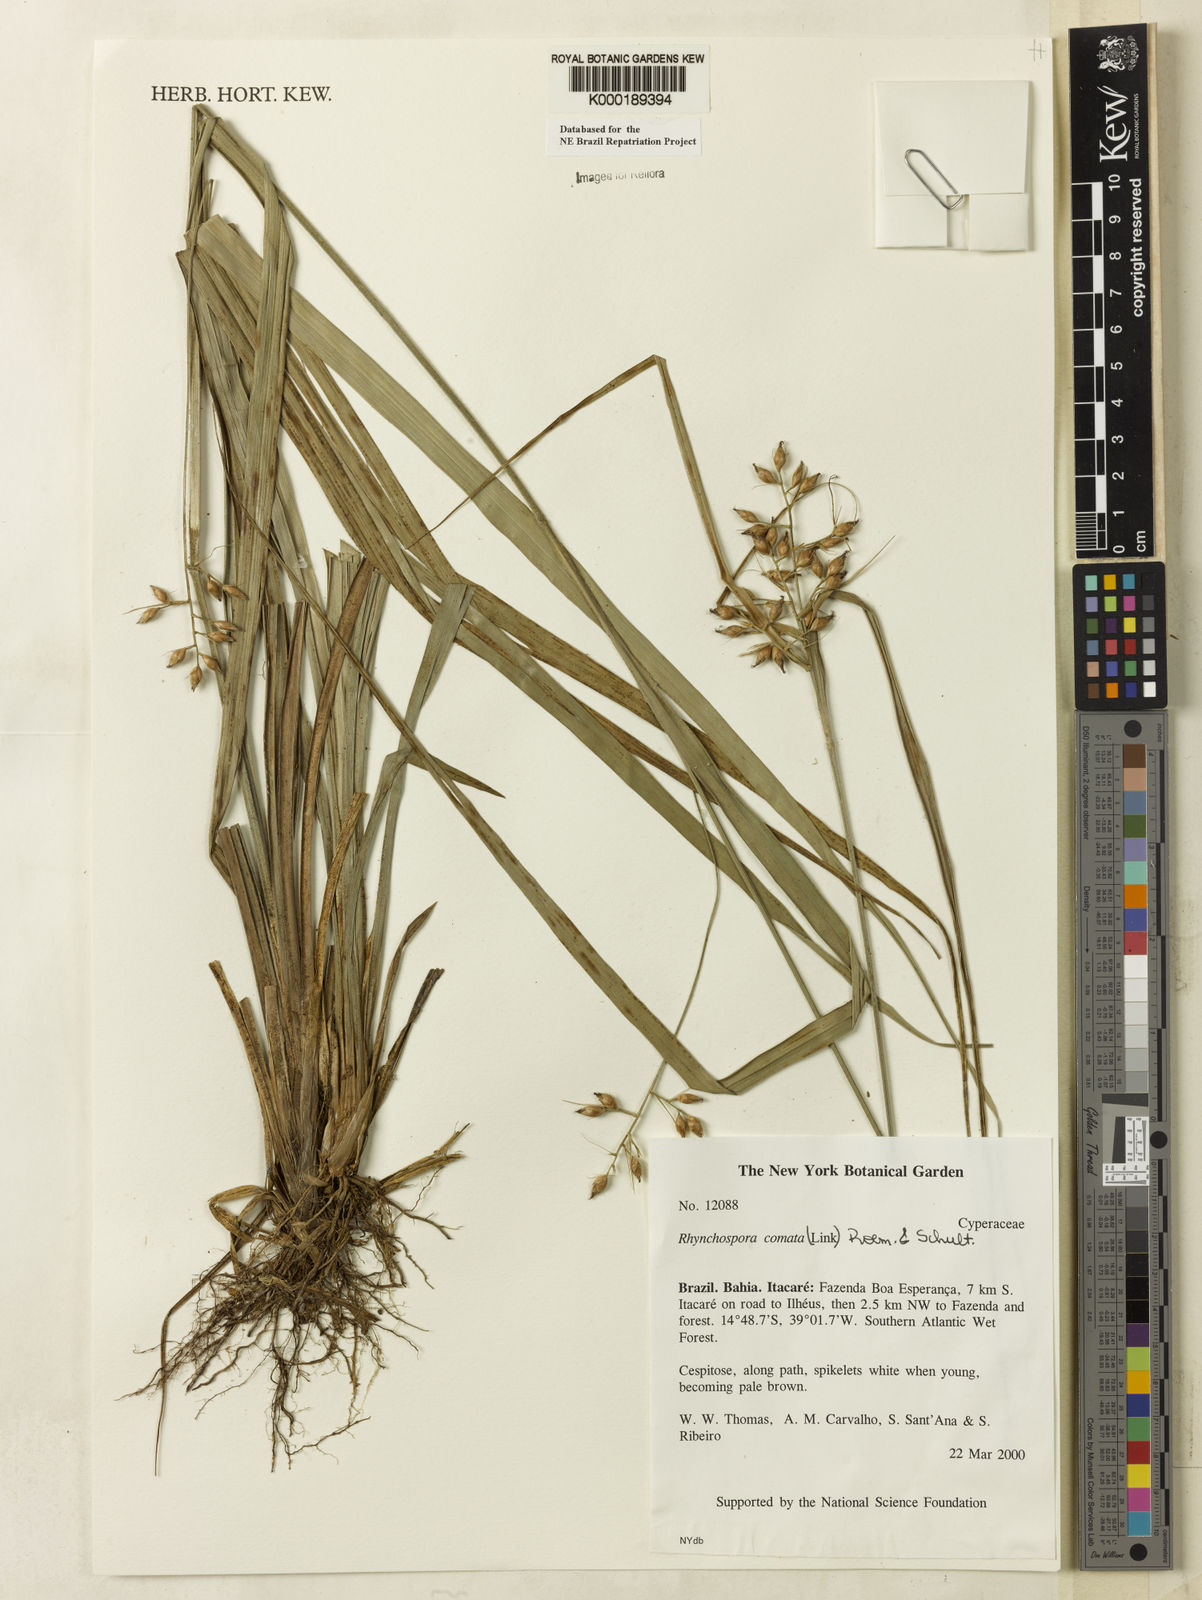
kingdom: Plantae
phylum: Tracheophyta
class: Liliopsida
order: Poales
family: Cyperaceae
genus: Rhynchospora
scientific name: Rhynchospora comata
